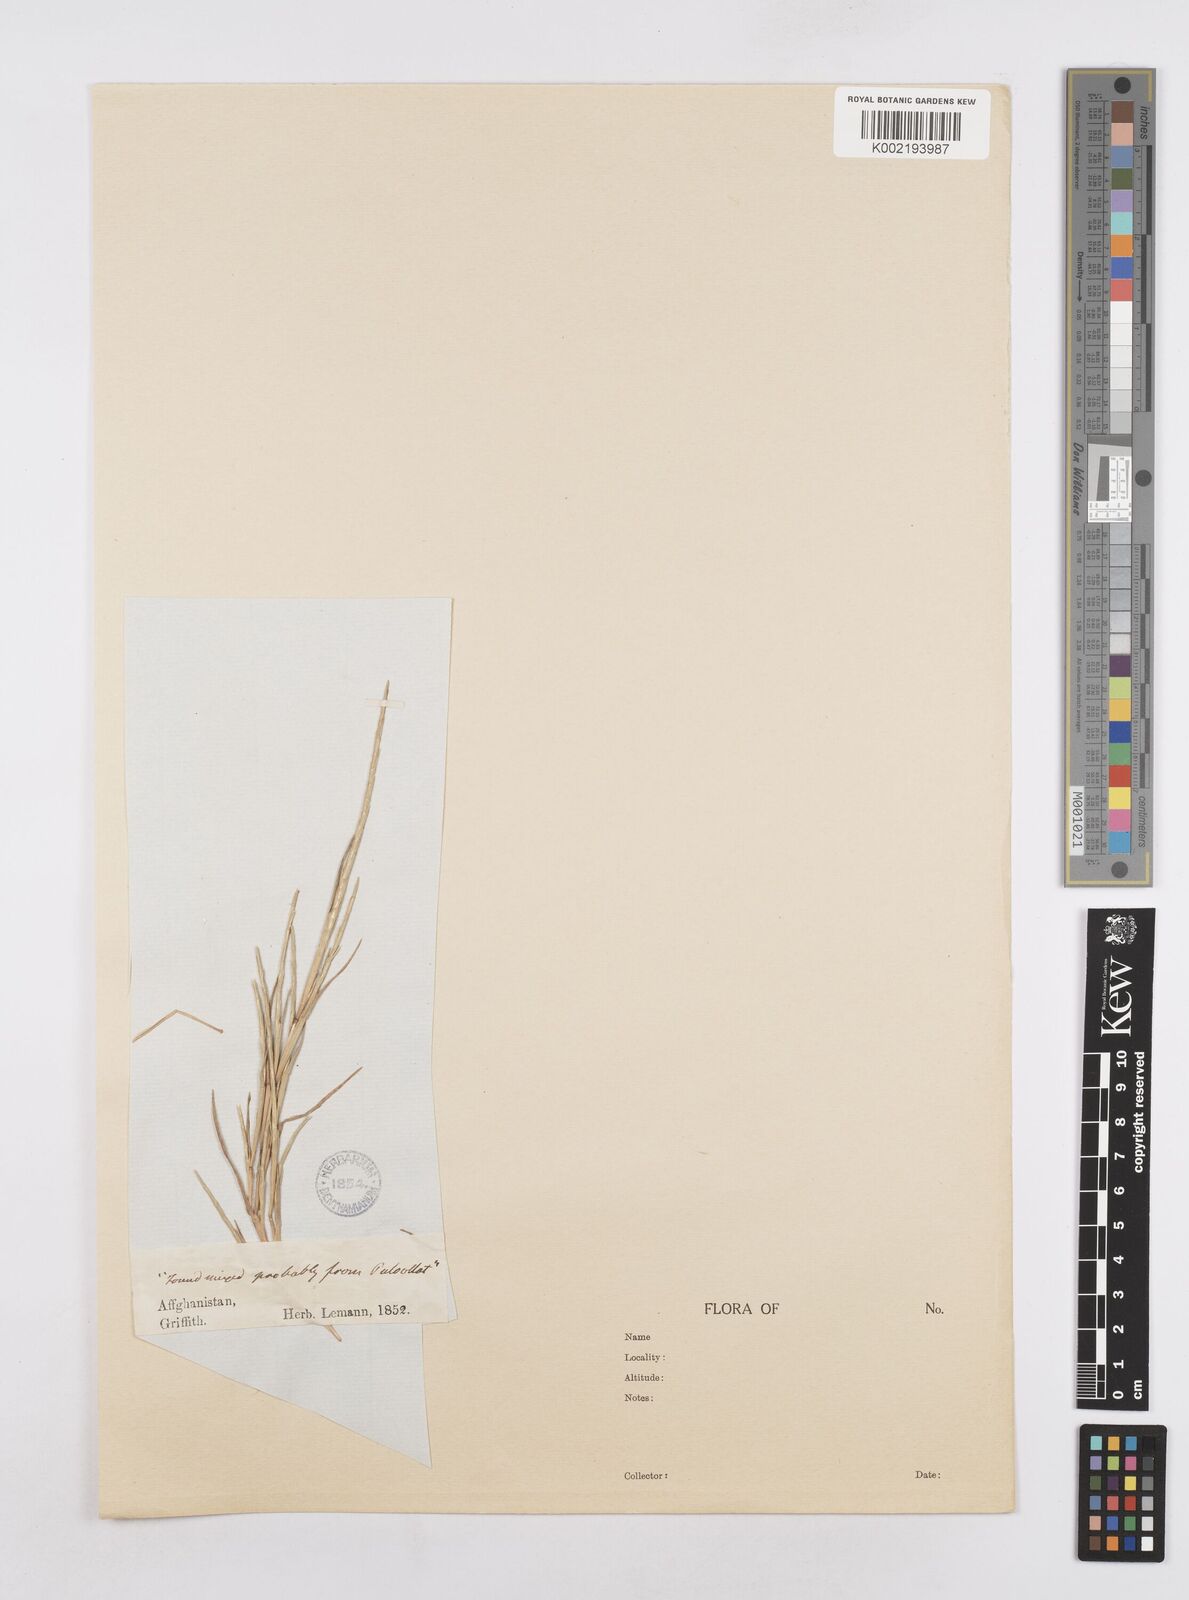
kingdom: Plantae
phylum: Tracheophyta
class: Liliopsida
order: Poales
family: Poaceae
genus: Parapholis
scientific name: Parapholis incurva
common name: Curved sicklegrass
